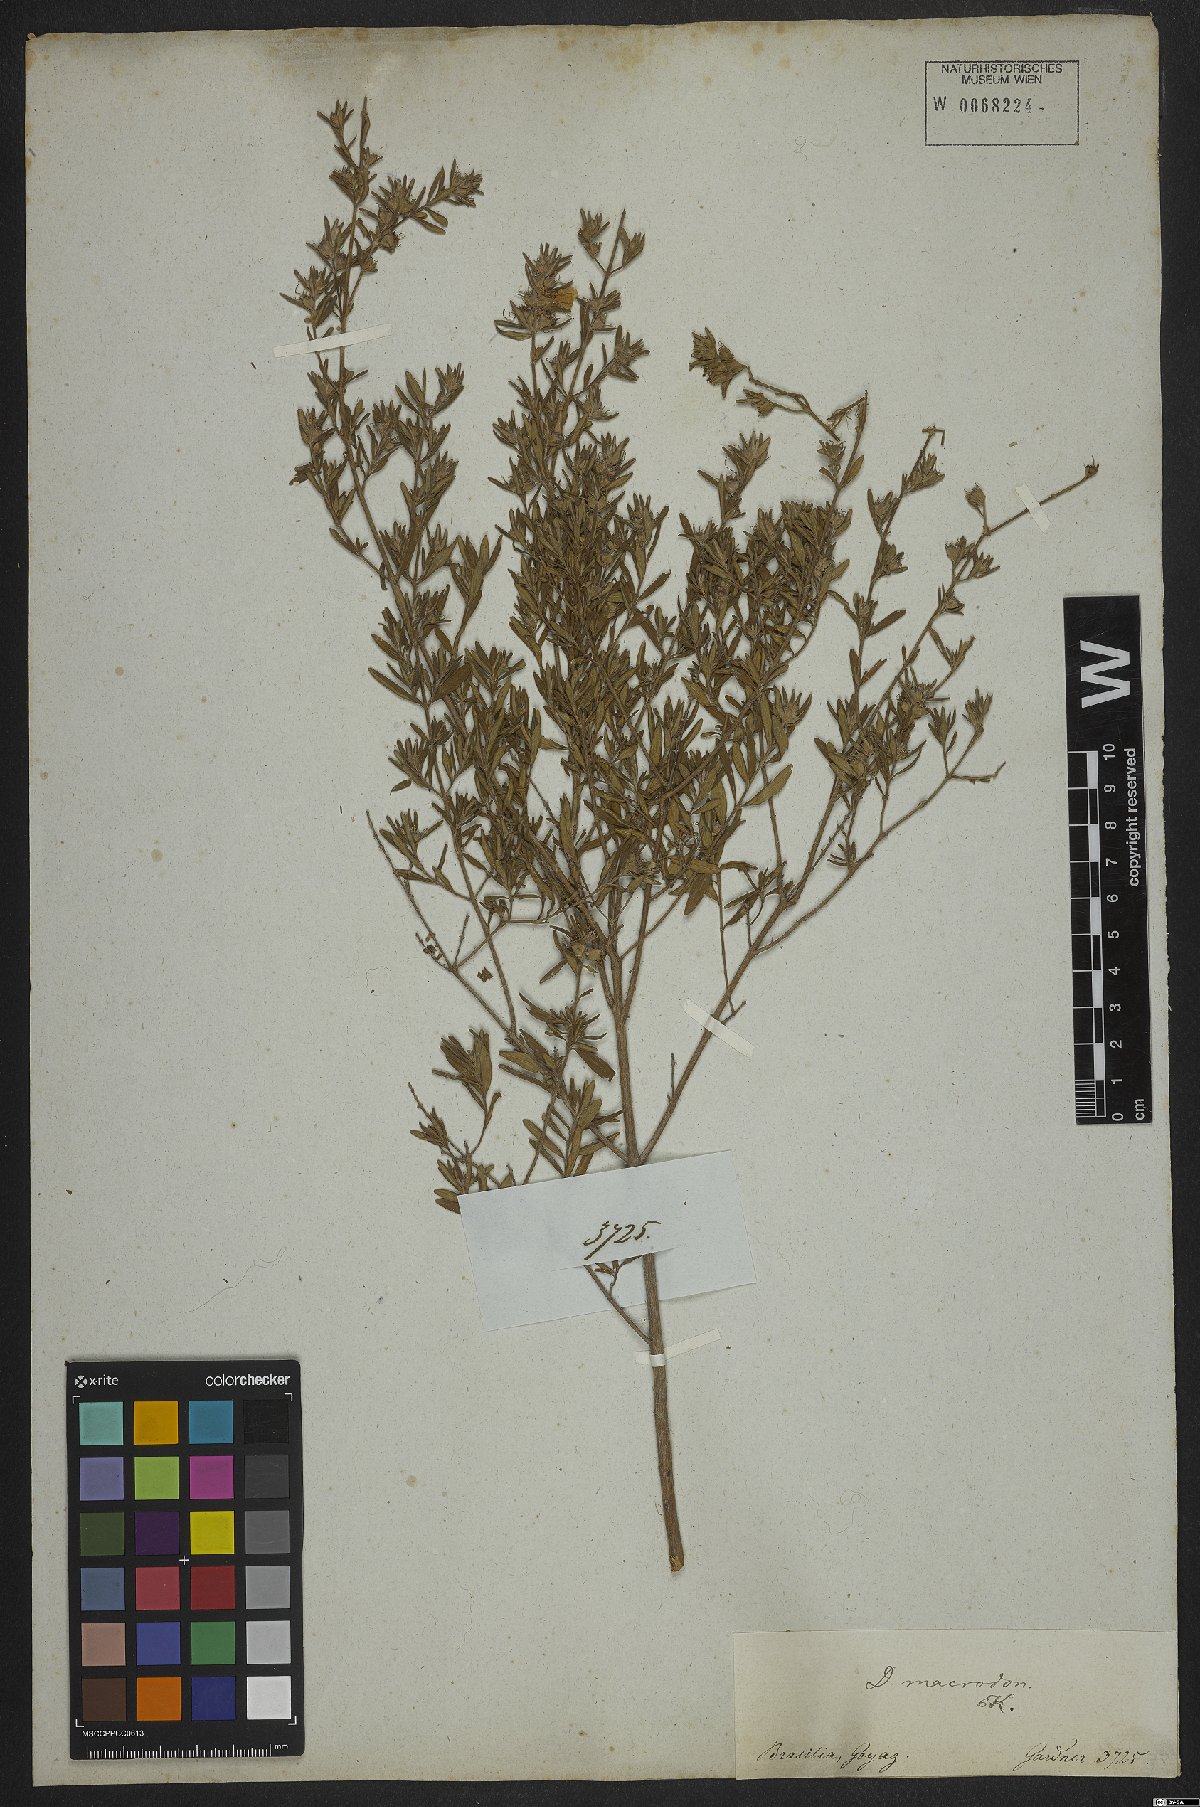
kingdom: Plantae
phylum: Tracheophyta
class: Magnoliopsida
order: Myrtales
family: Lythraceae
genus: Diplusodon
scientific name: Diplusodon macrodon
